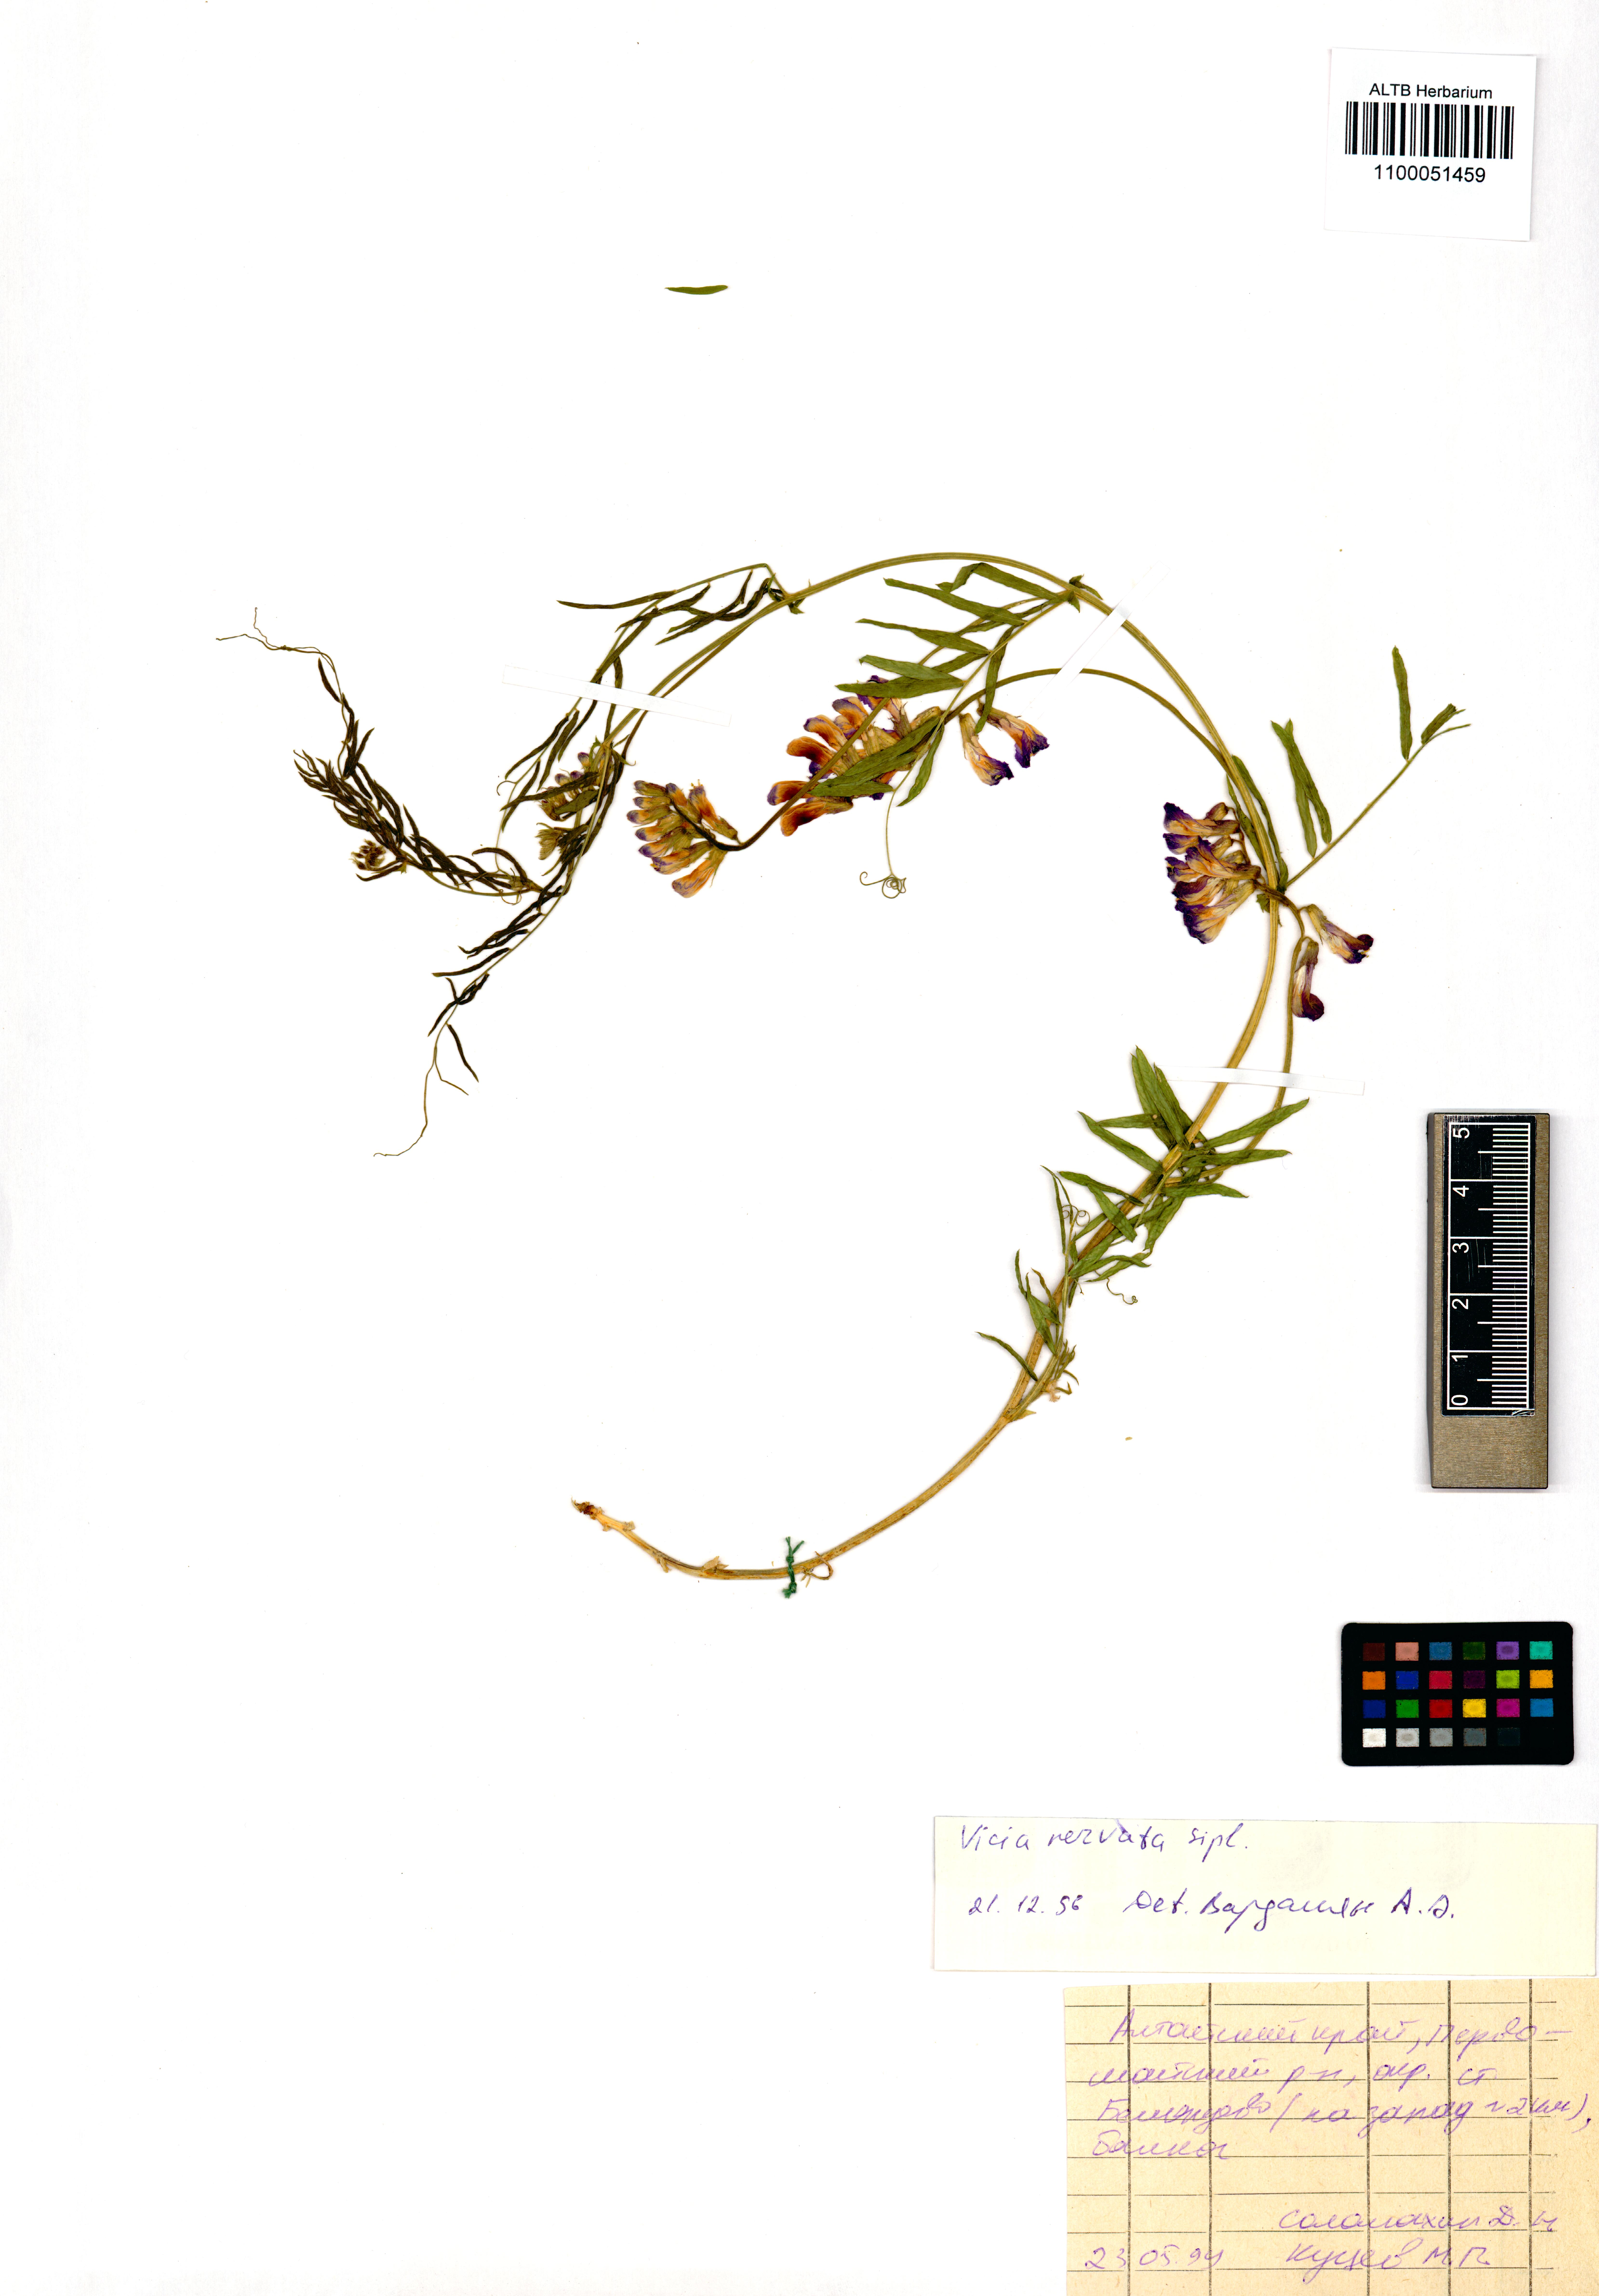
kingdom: Plantae
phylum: Tracheophyta
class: Magnoliopsida
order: Fabales
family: Fabaceae
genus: Vicia
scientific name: Vicia multicaulis
